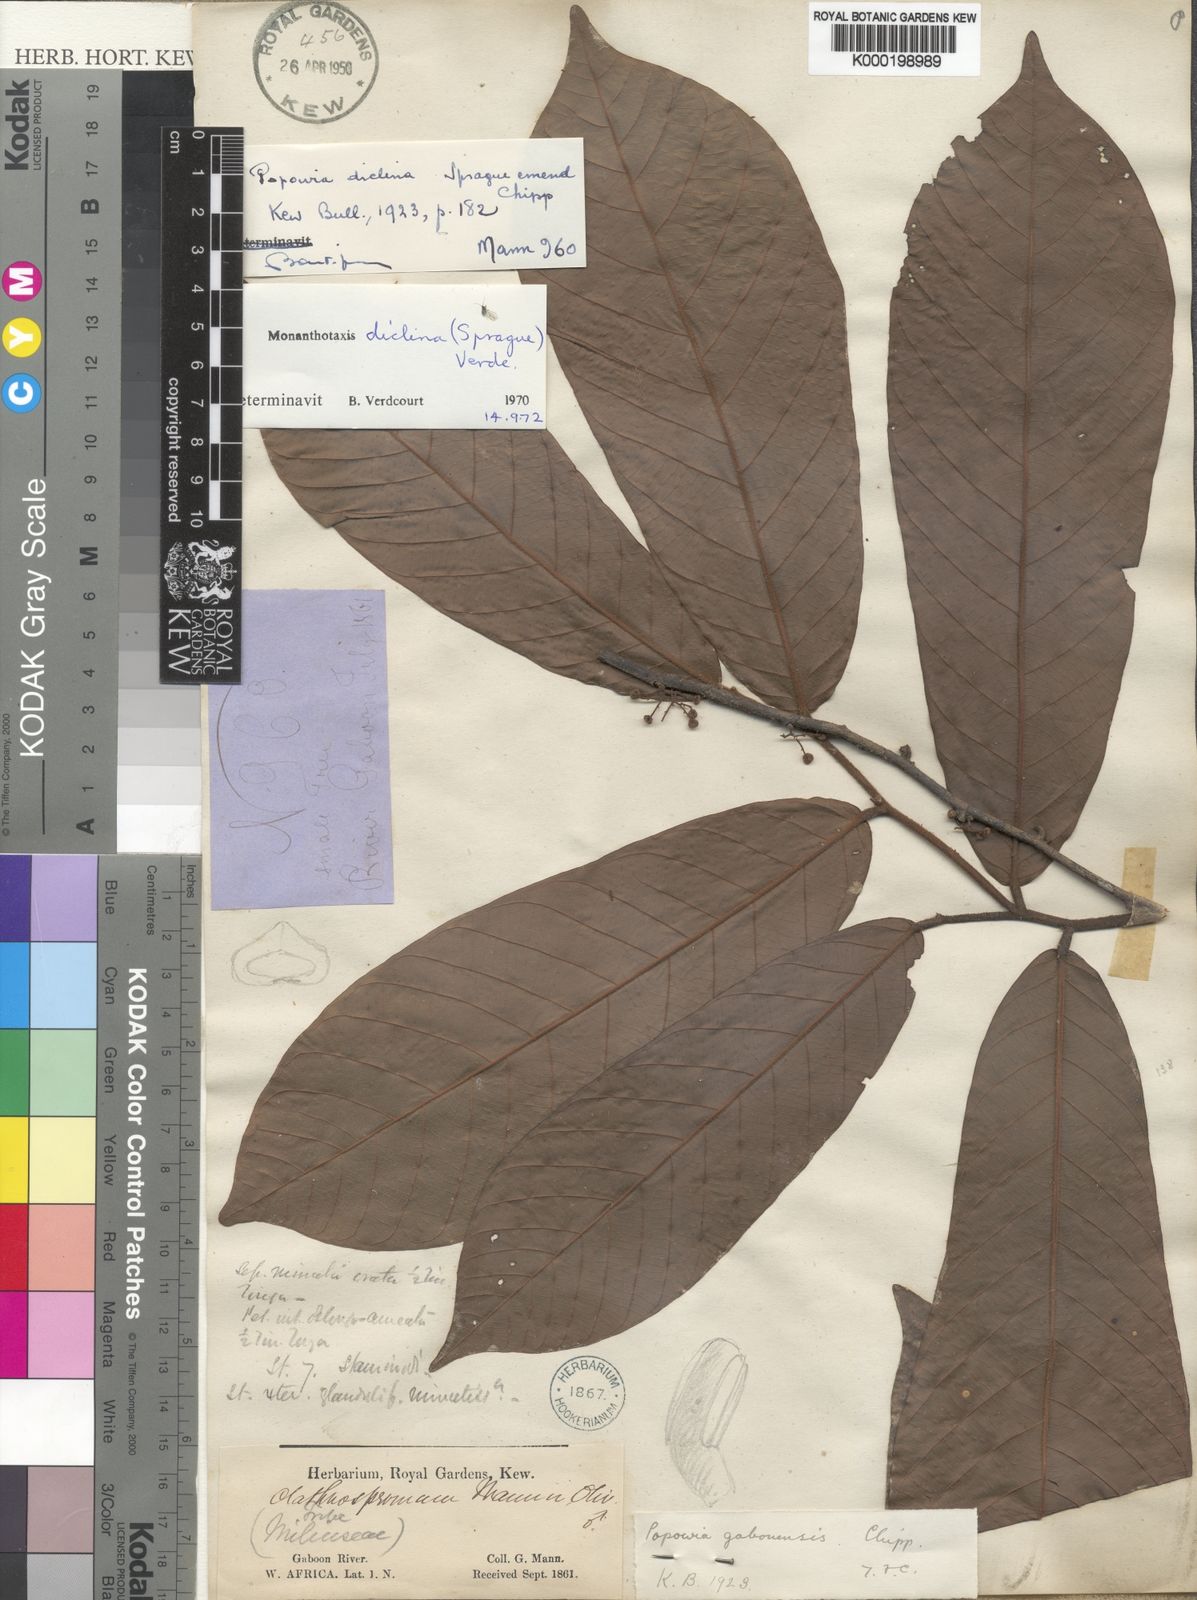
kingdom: Plantae
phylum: Tracheophyta
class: Magnoliopsida
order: Magnoliales
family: Annonaceae
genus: Monanthotaxis
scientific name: Monanthotaxis diclina
